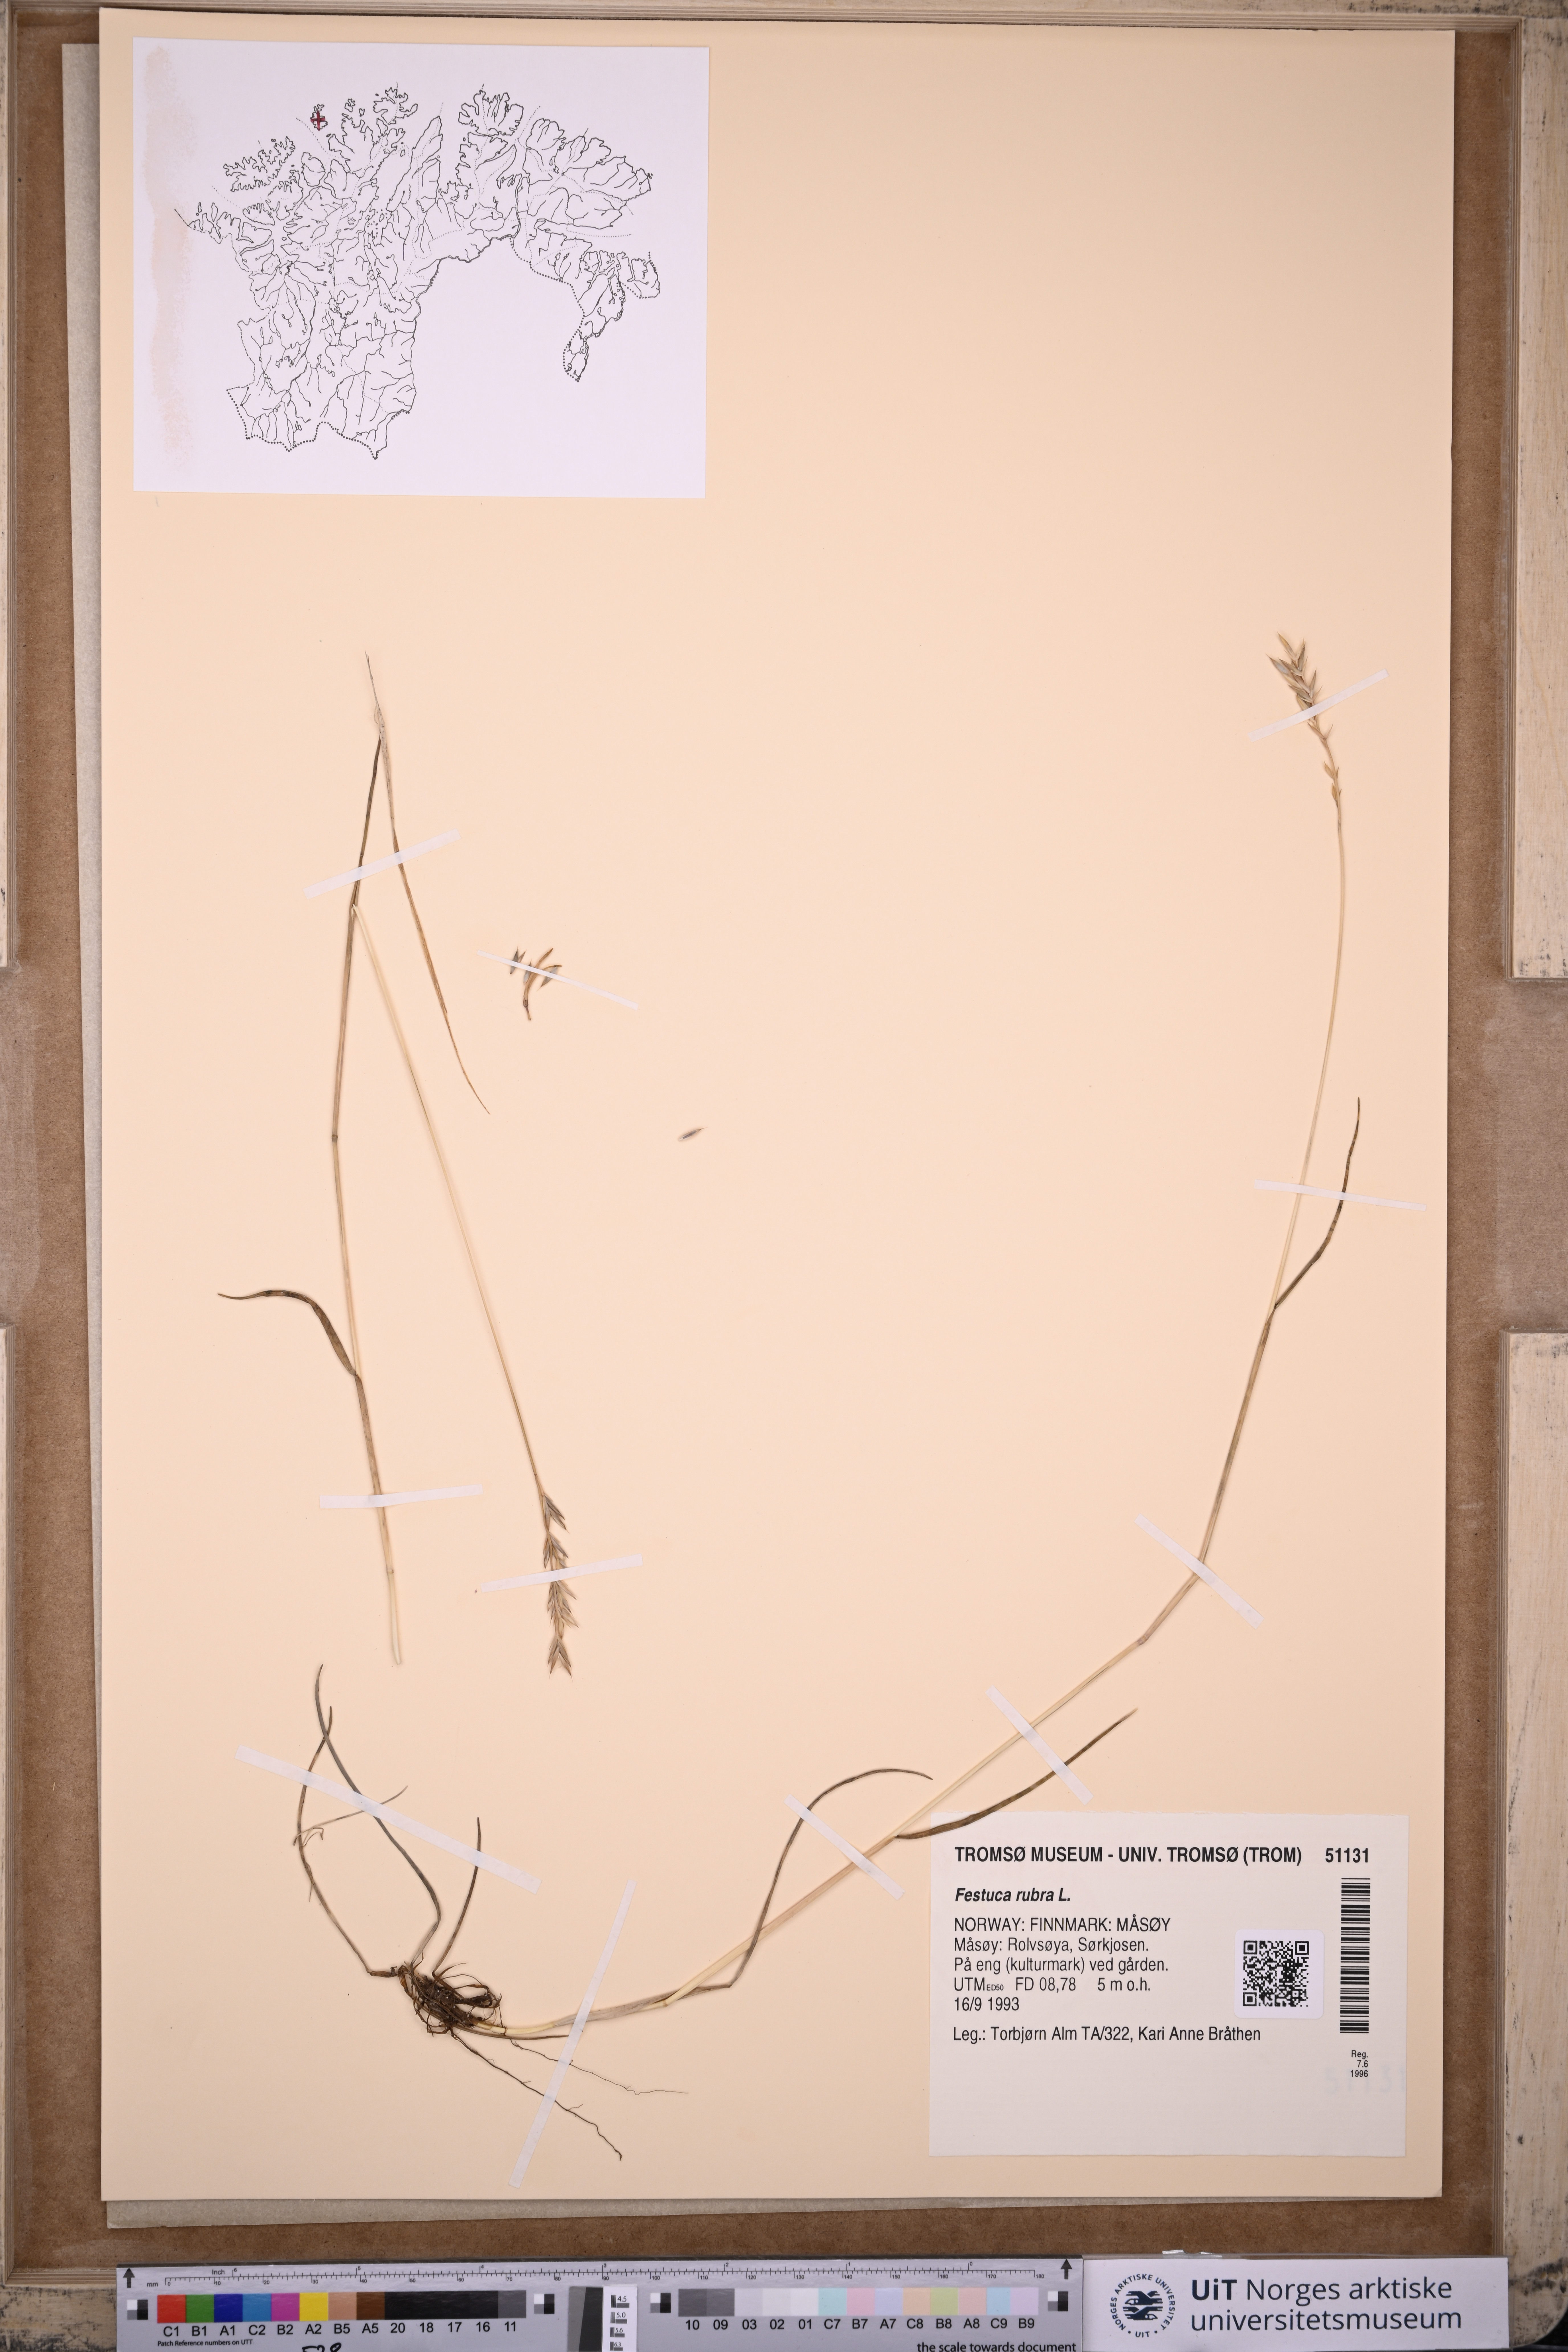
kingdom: Plantae
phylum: Tracheophyta
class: Liliopsida
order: Poales
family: Poaceae
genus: Festuca
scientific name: Festuca rubra
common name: Red fescue
